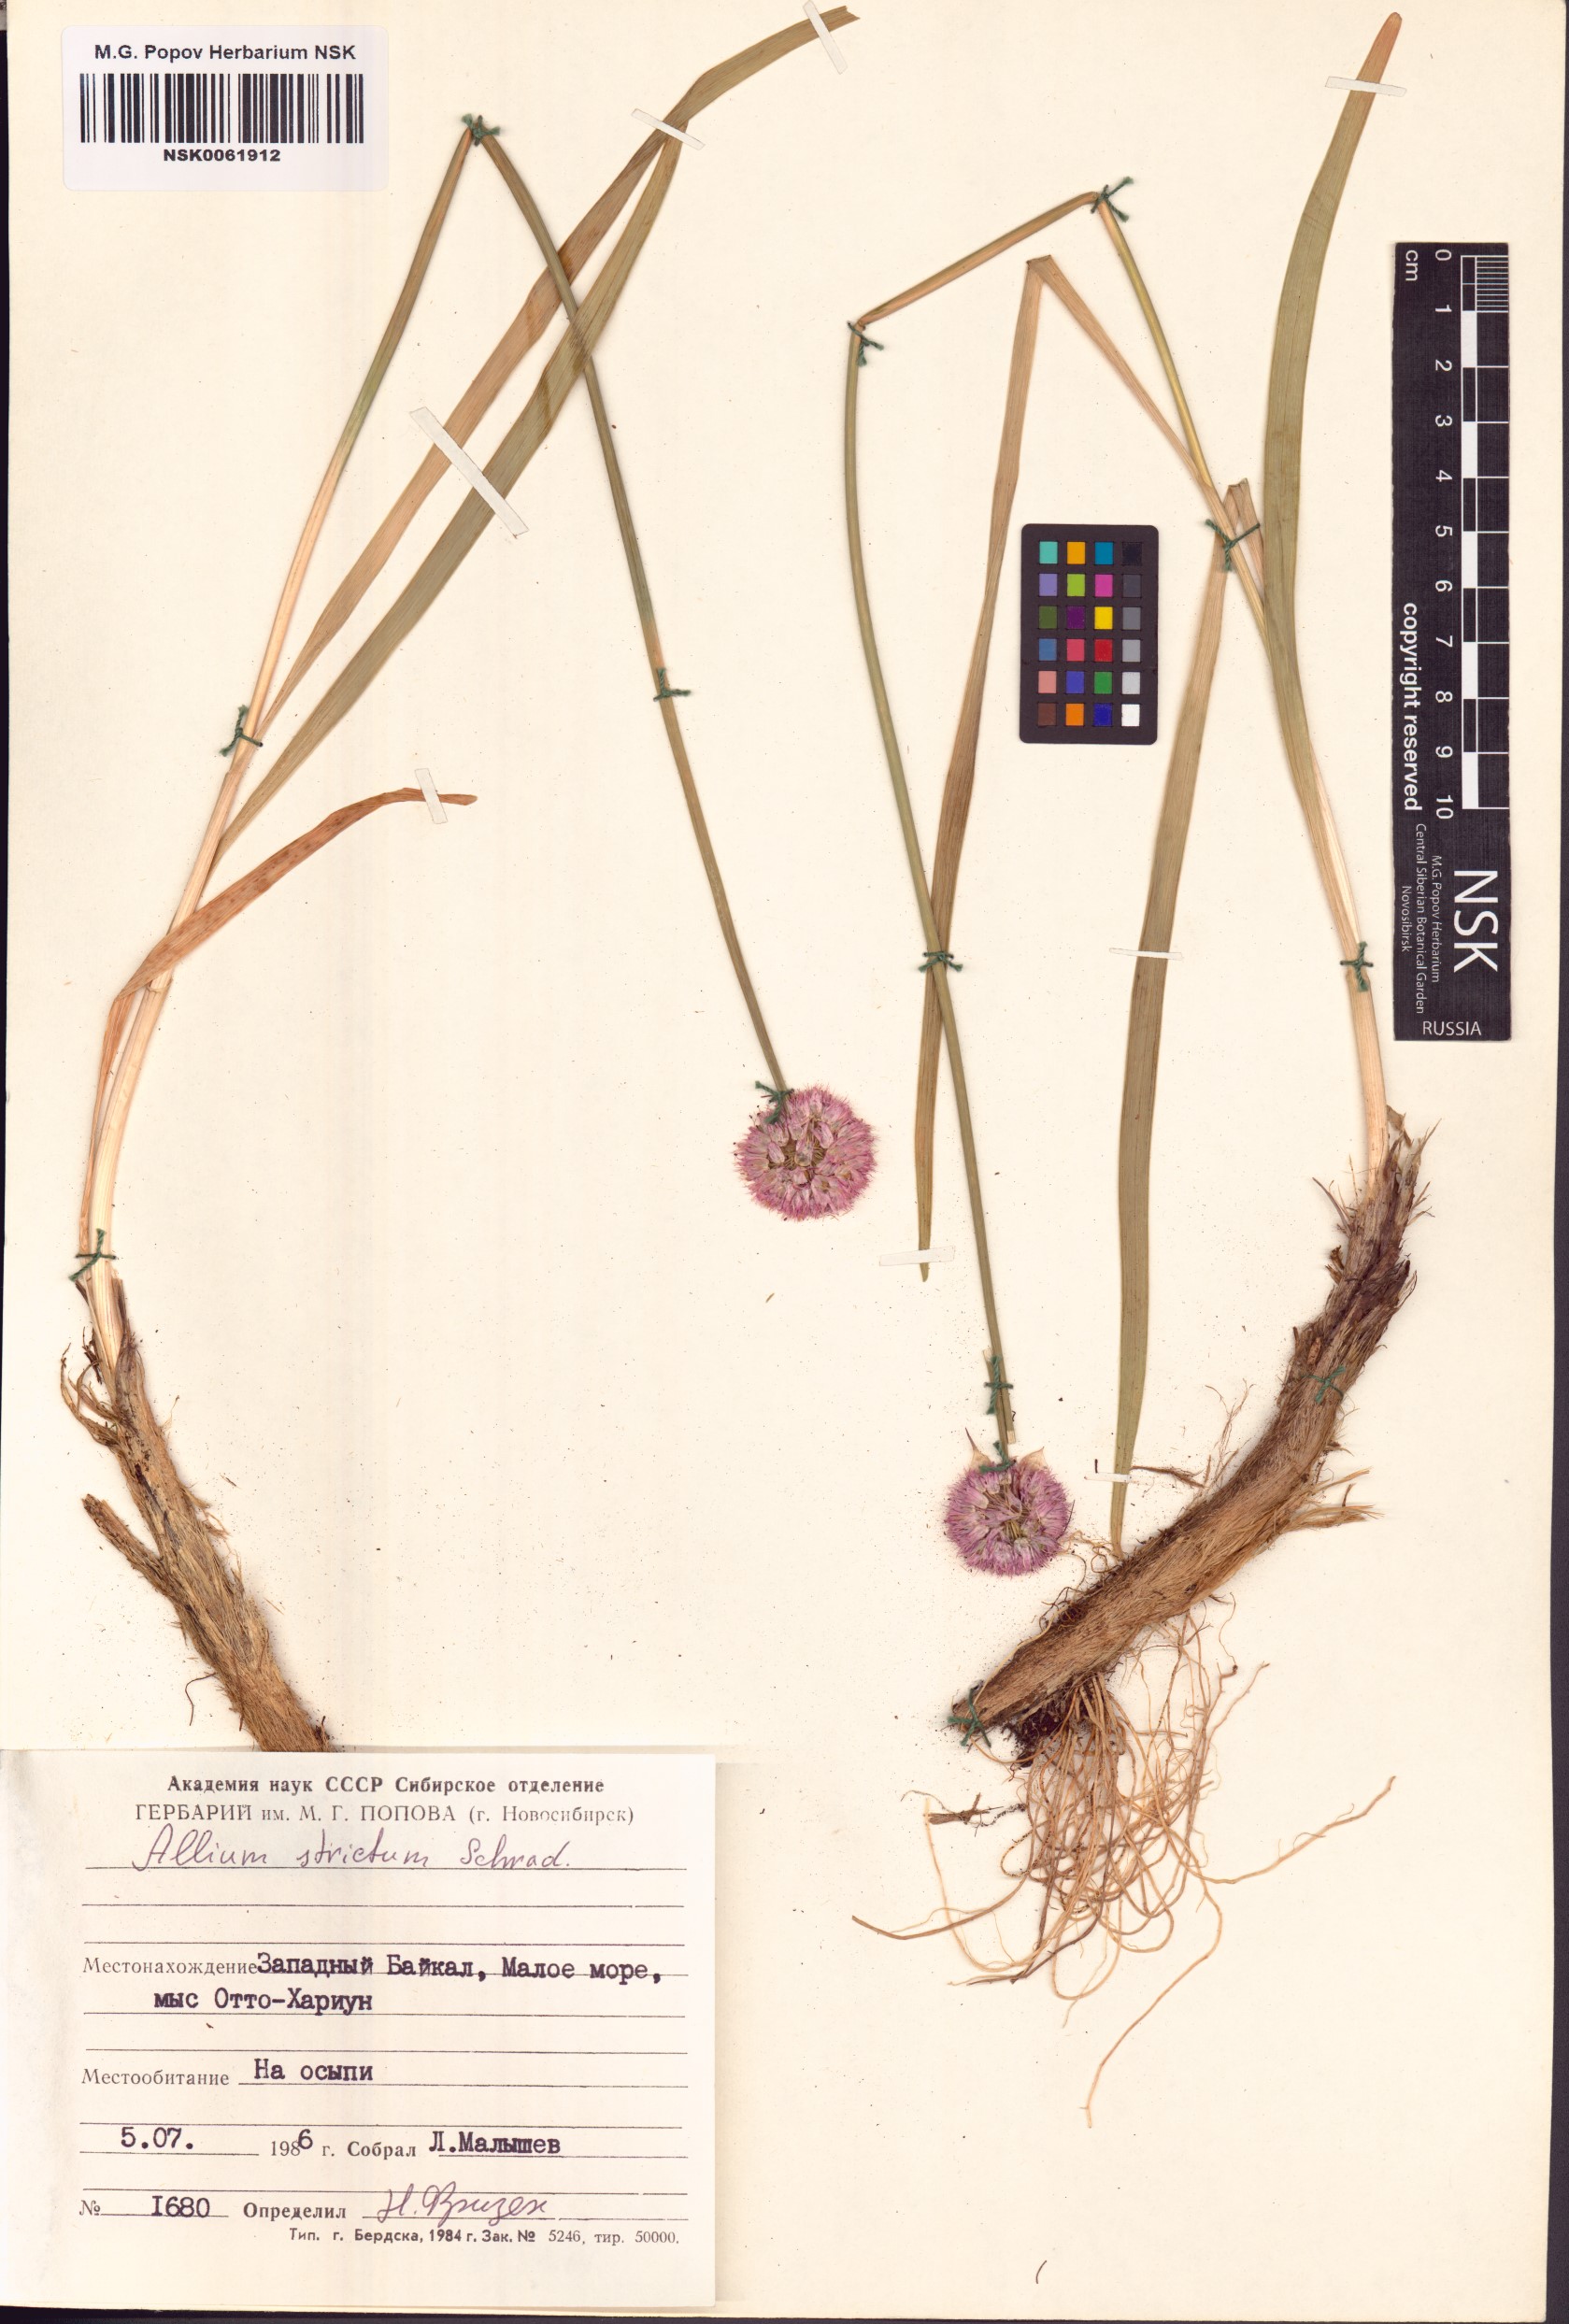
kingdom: Plantae
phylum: Tracheophyta
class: Liliopsida
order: Asparagales
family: Amaryllidaceae
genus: Allium
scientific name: Allium strictum
